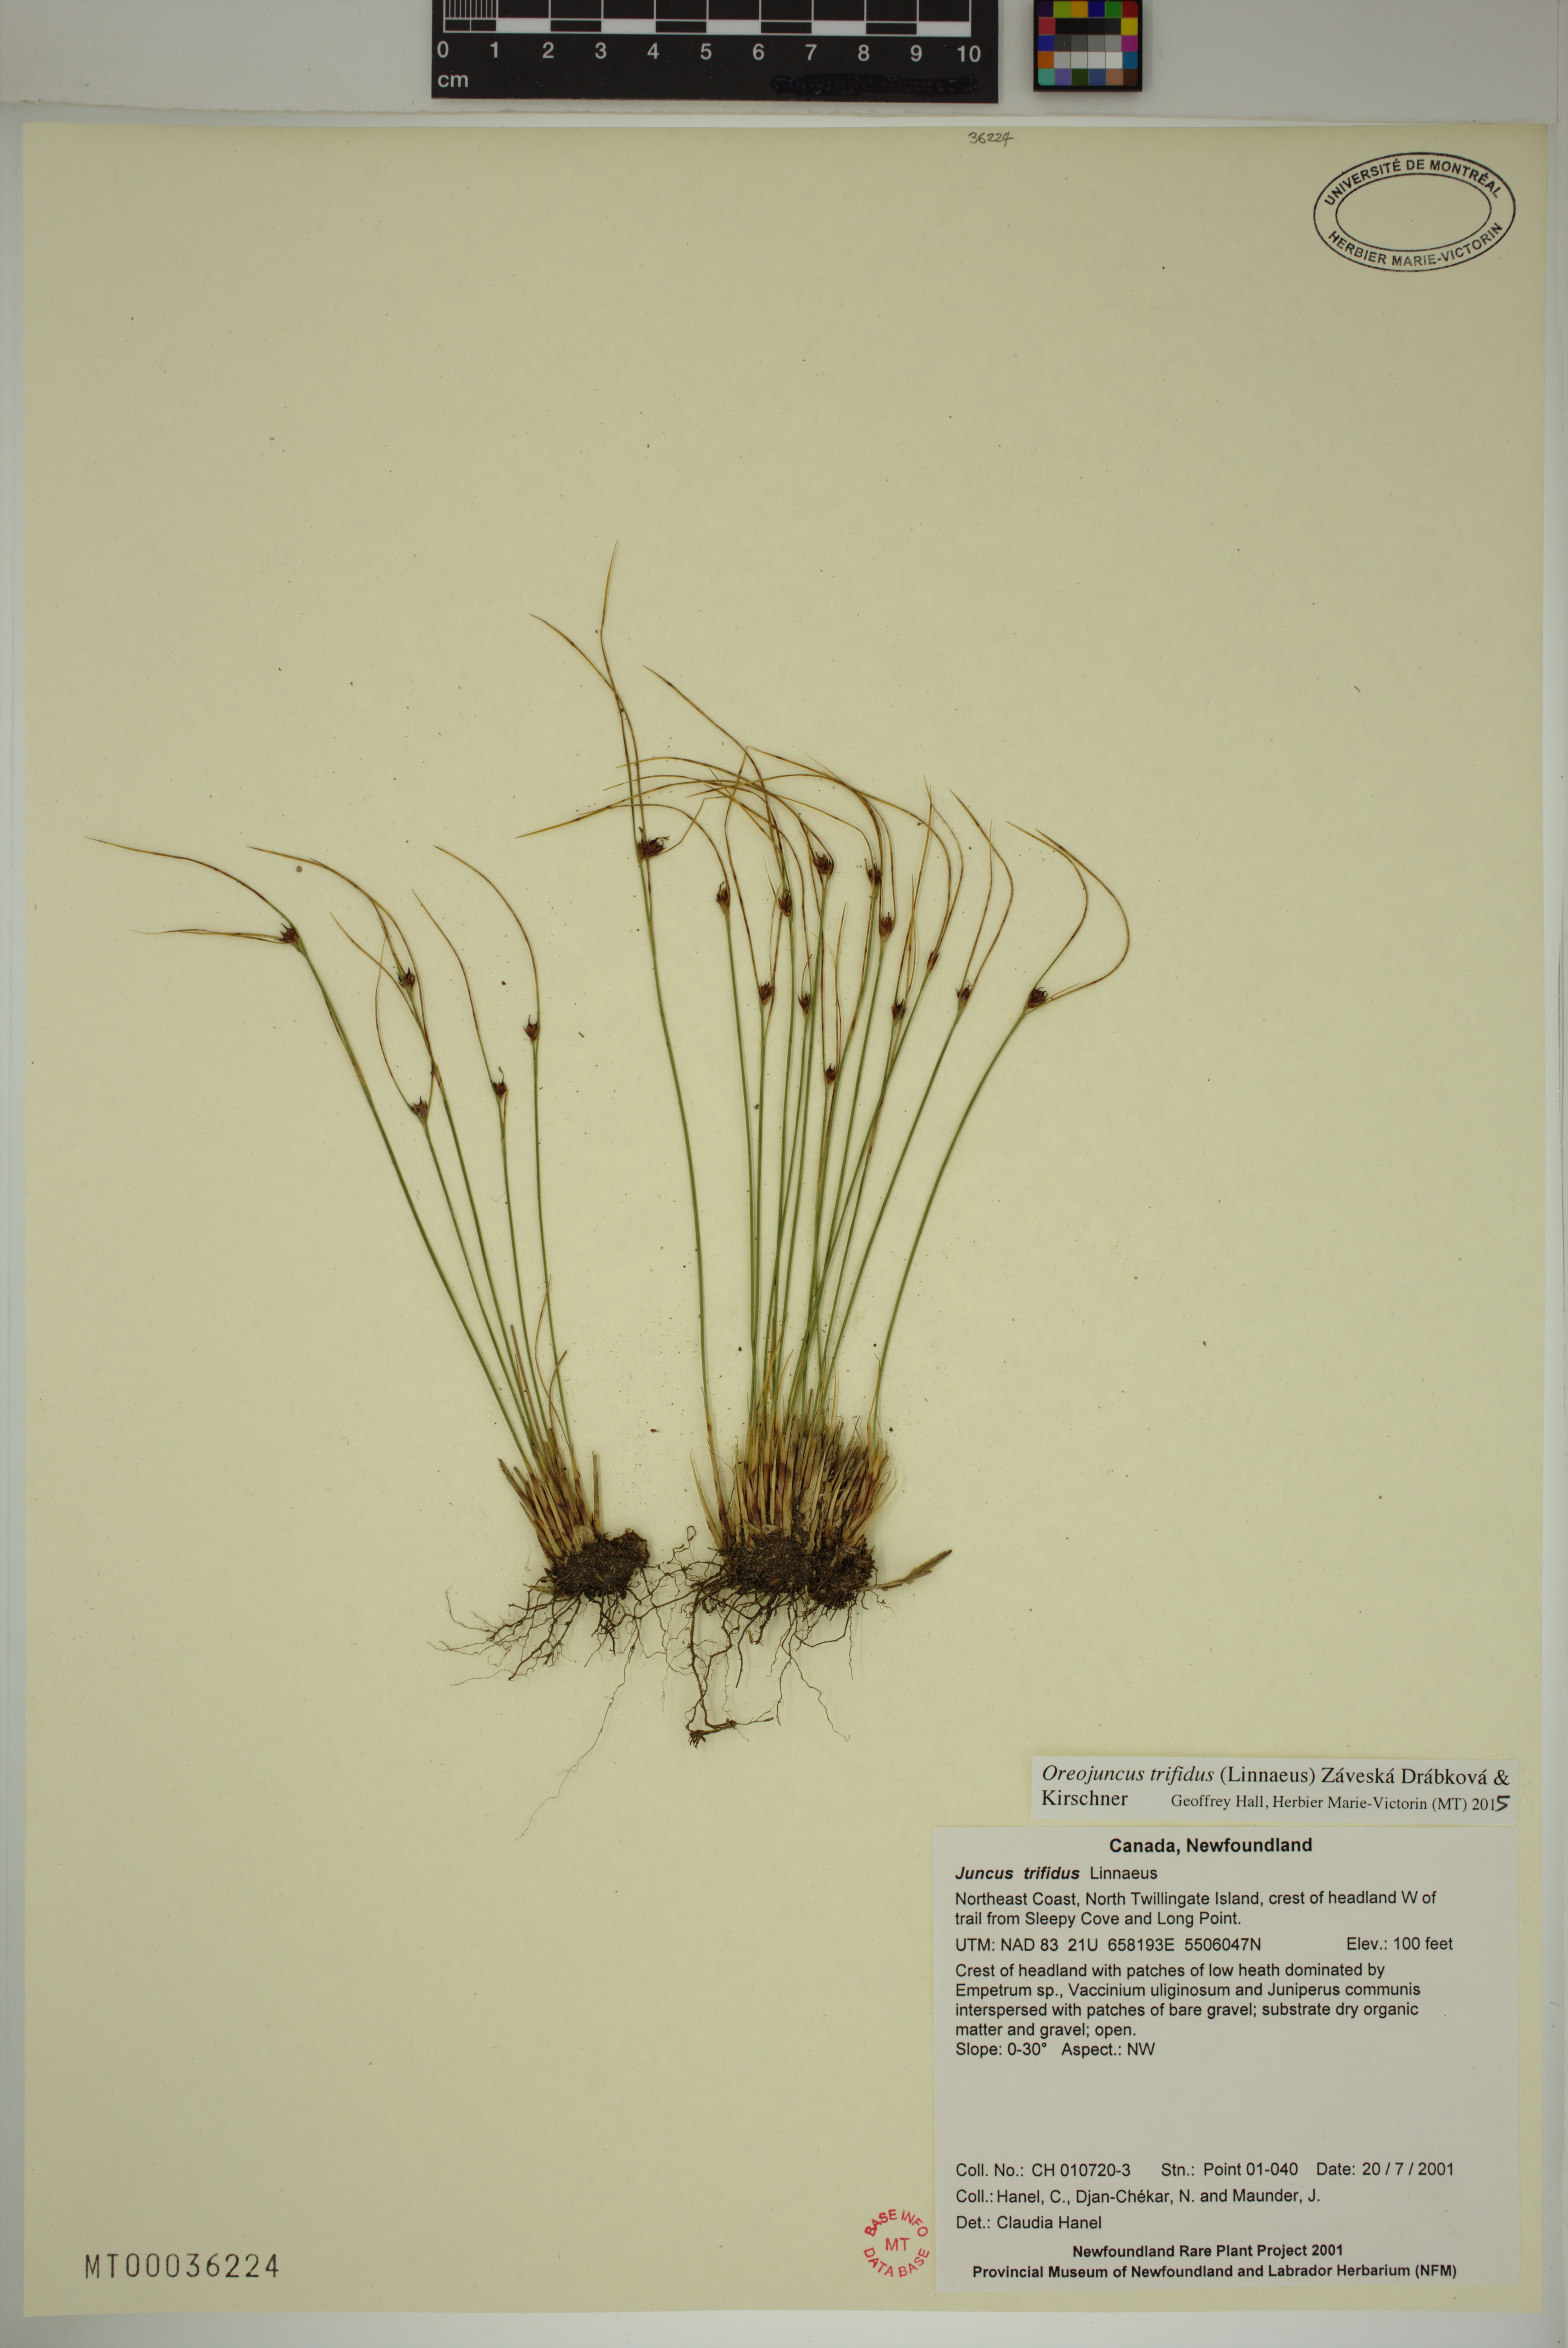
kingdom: Plantae
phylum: Tracheophyta
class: Liliopsida
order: Poales
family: Juncaceae
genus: Oreojuncus
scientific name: Oreojuncus trifidus
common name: Highland rush
